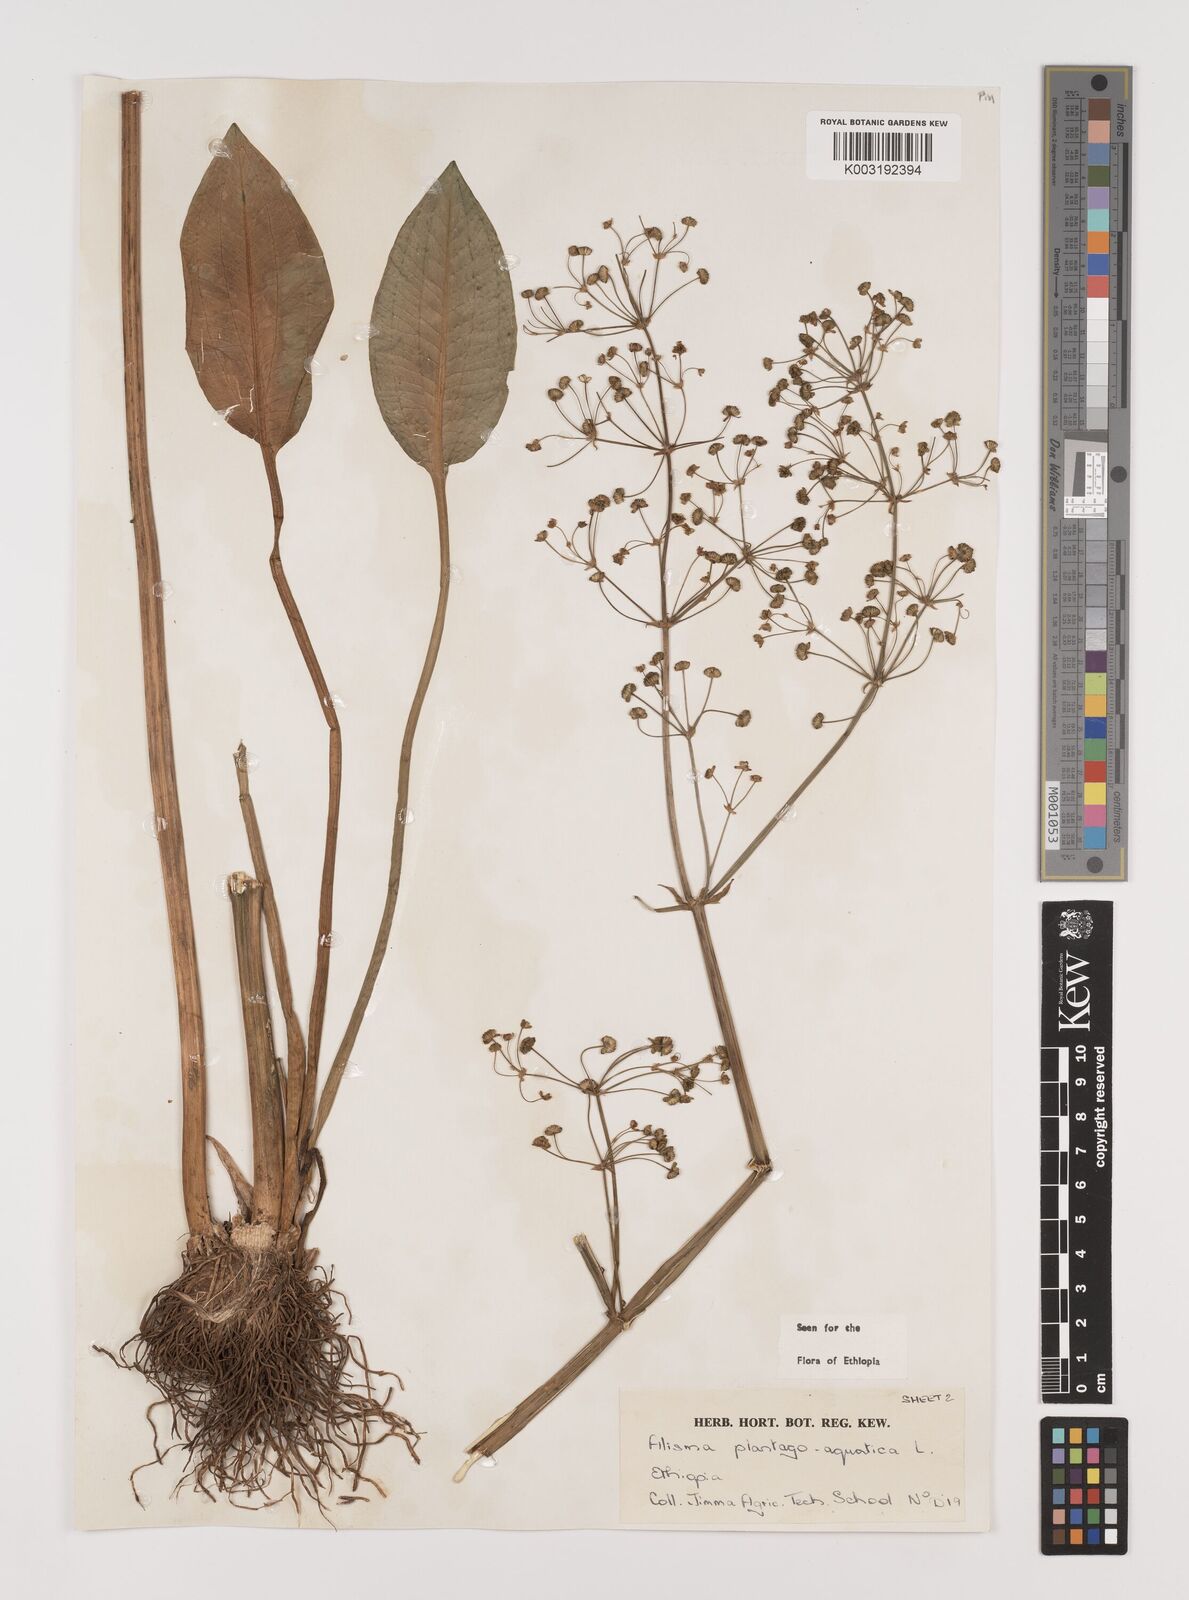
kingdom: Plantae
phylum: Tracheophyta
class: Liliopsida
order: Alismatales
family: Alismataceae
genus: Alisma
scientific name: Alisma plantago-aquatica
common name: Water-plantain
